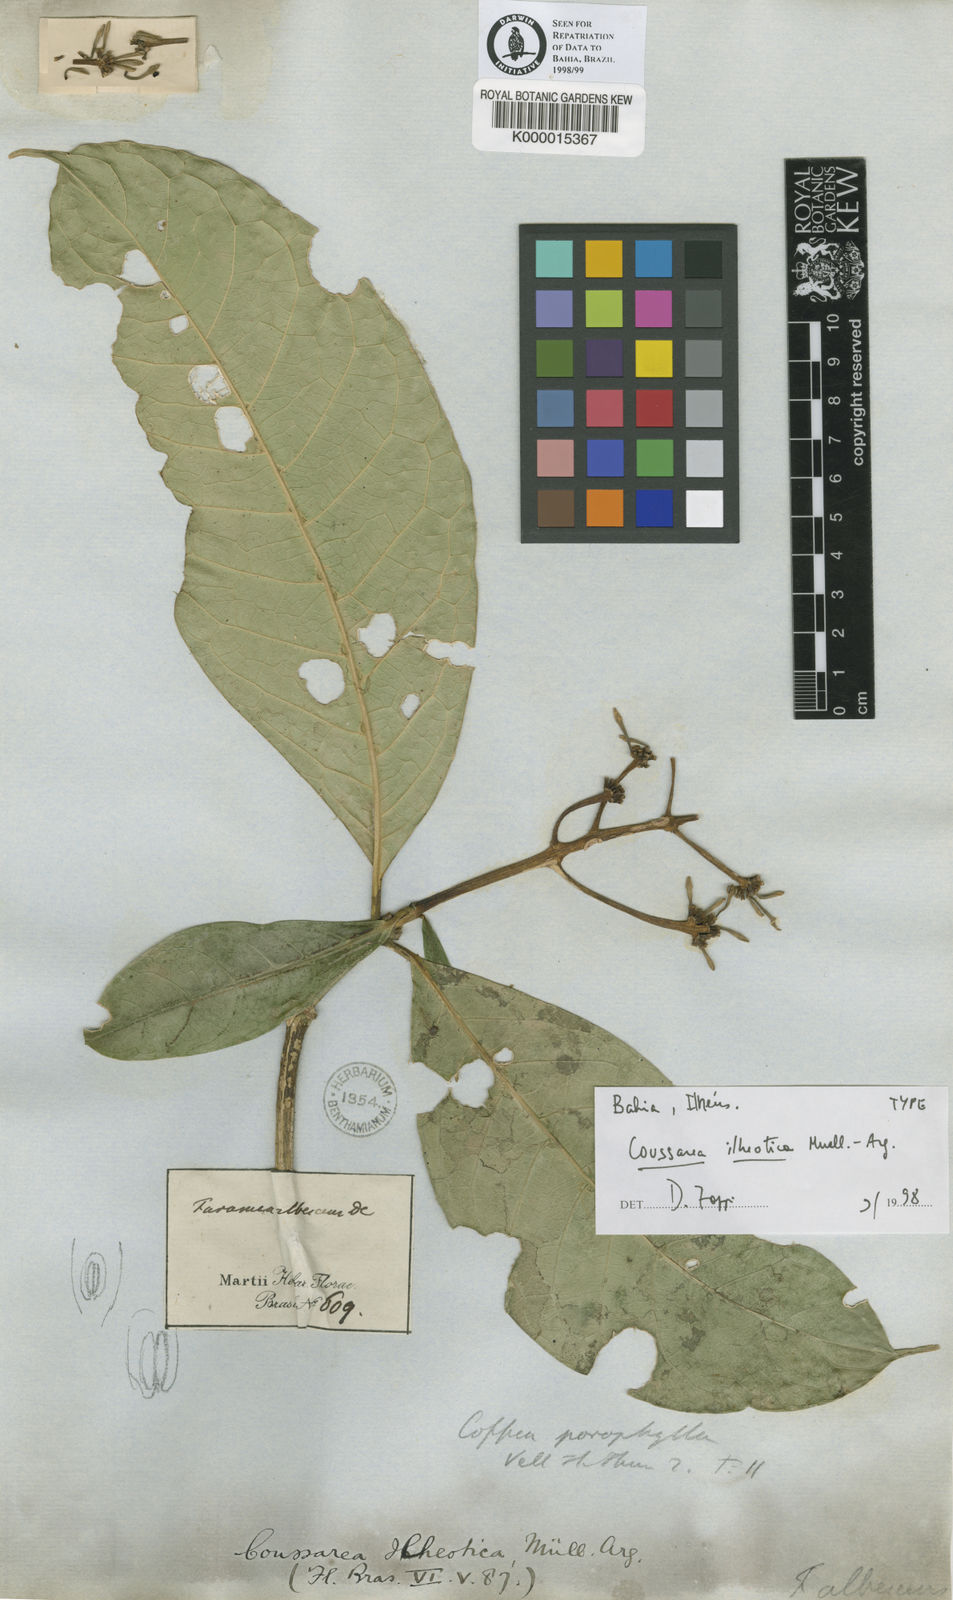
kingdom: Plantae
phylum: Tracheophyta
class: Magnoliopsida
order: Gentianales
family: Rubiaceae
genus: Coussarea
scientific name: Coussarea
